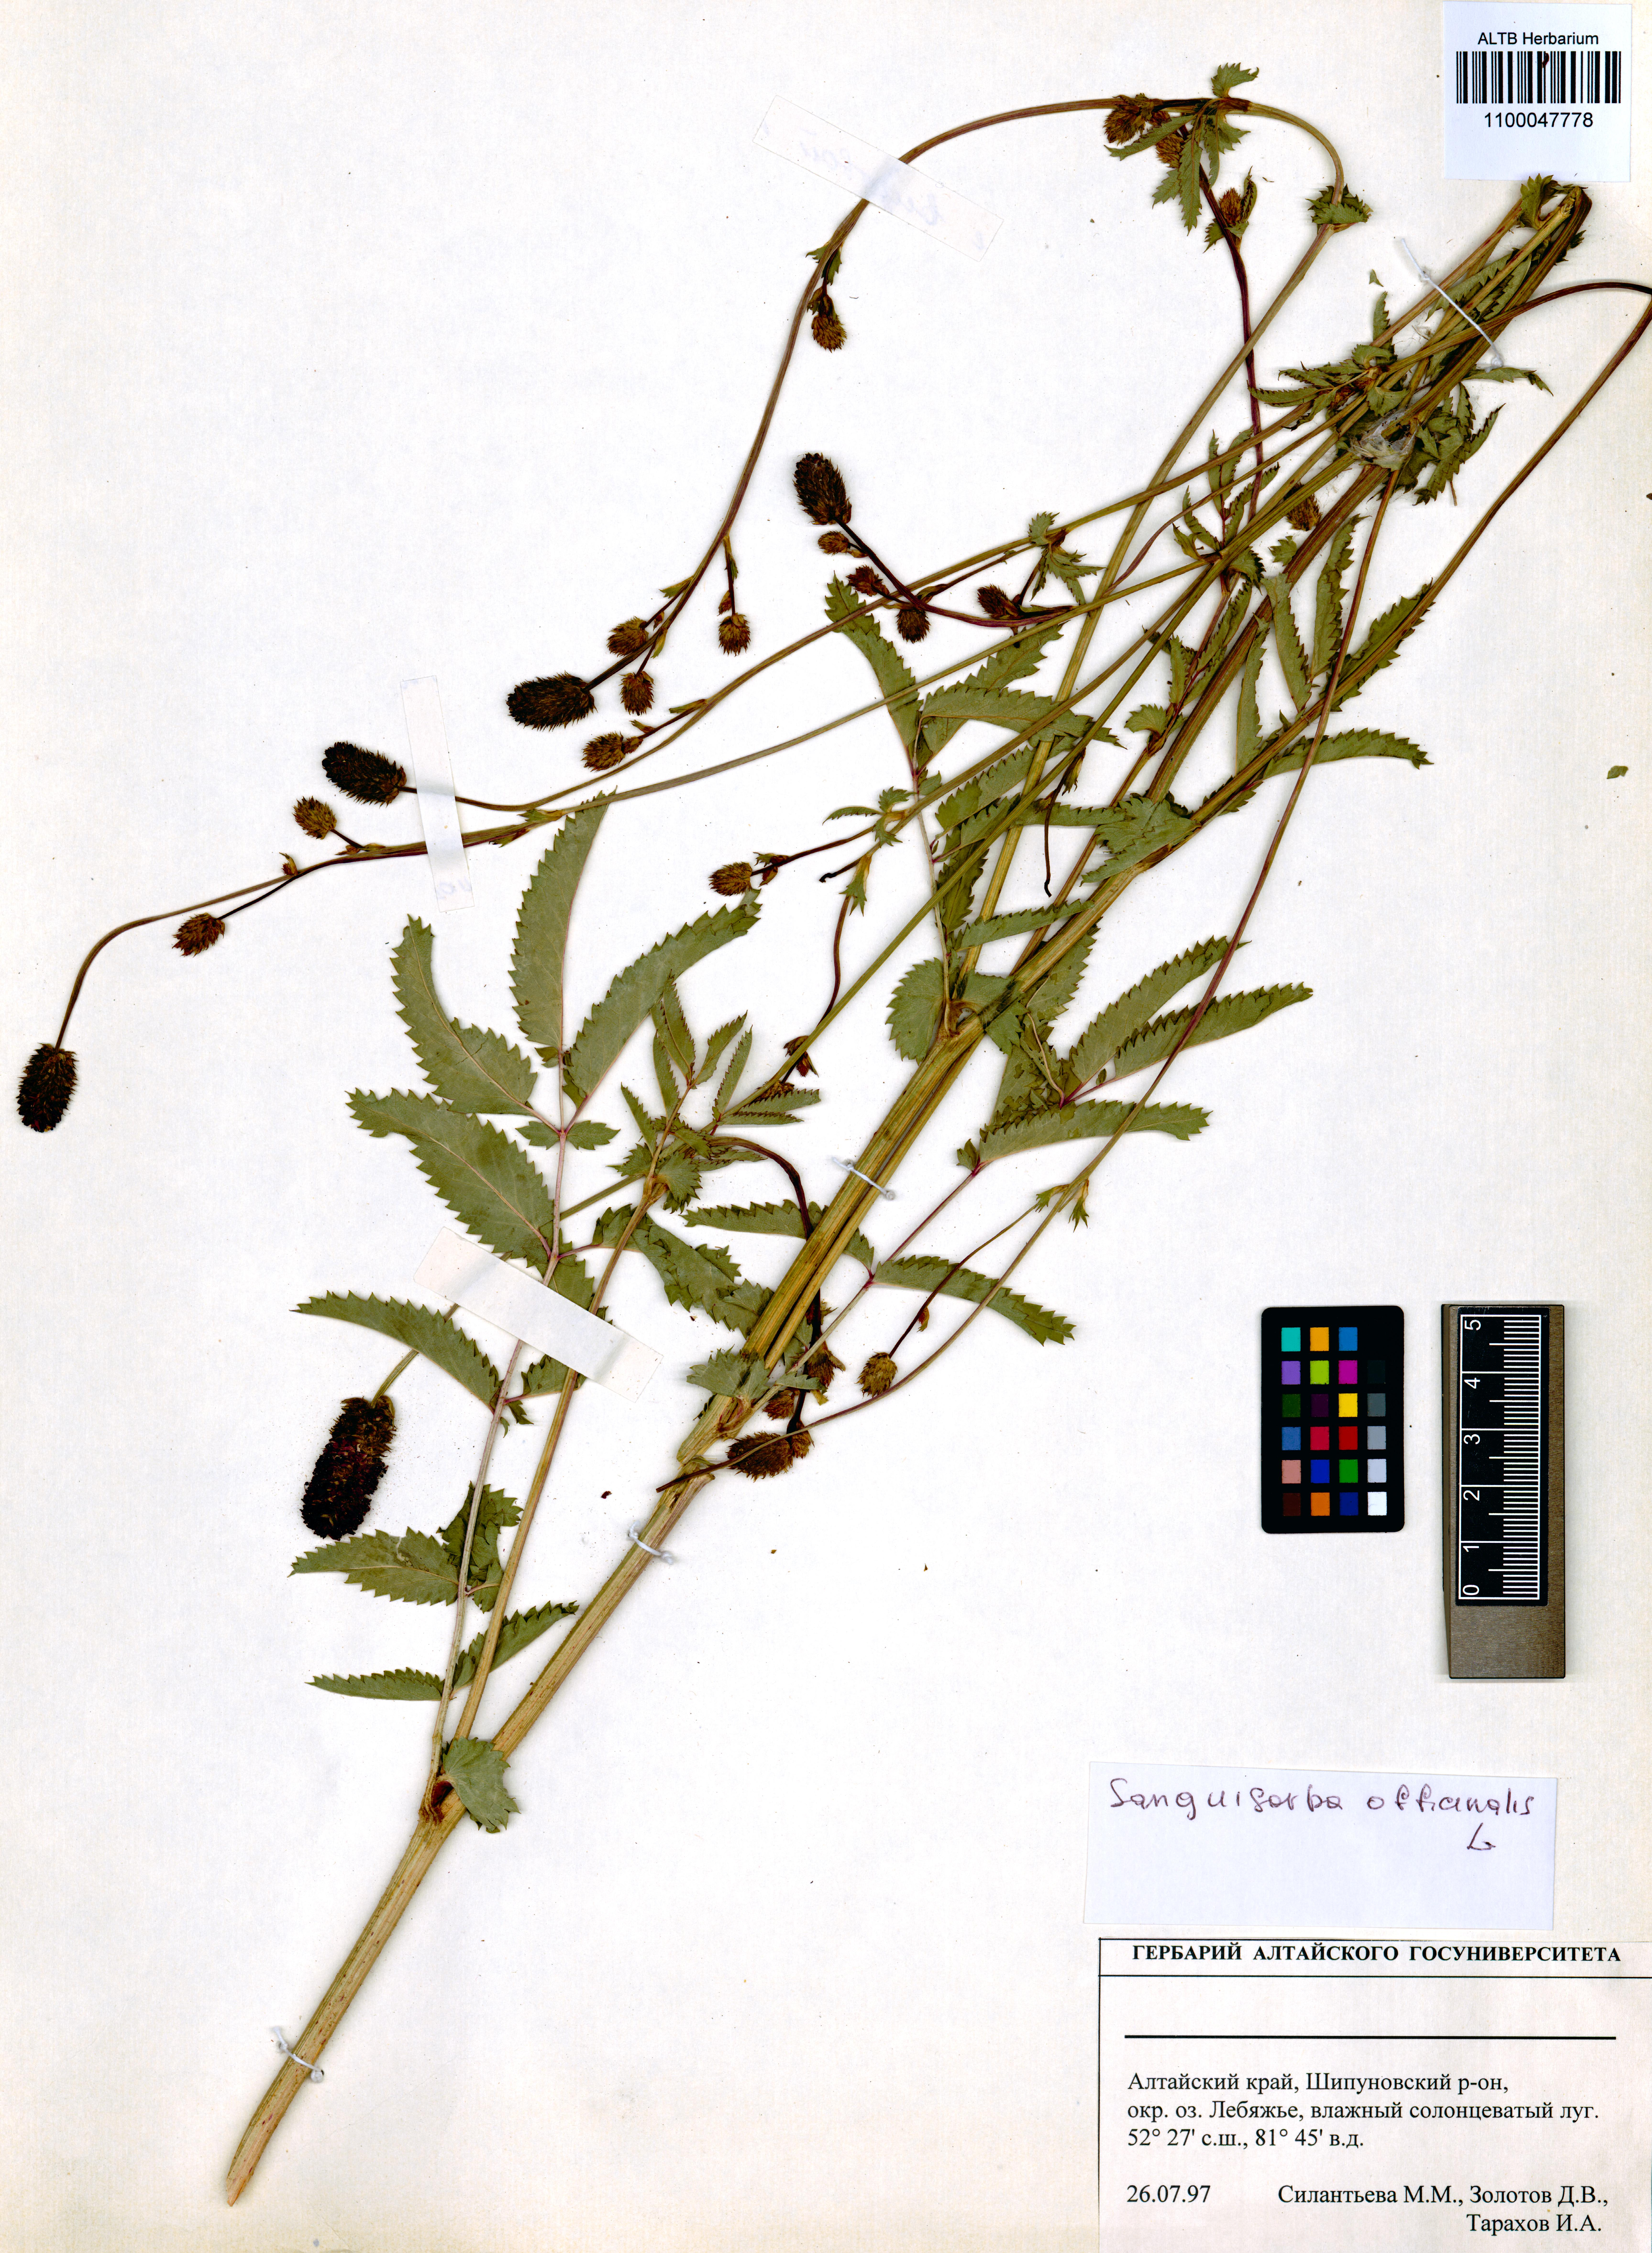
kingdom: Plantae
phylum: Tracheophyta
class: Magnoliopsida
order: Rosales
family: Rosaceae
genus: Sanguisorba
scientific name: Sanguisorba officinalis
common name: Great burnet
